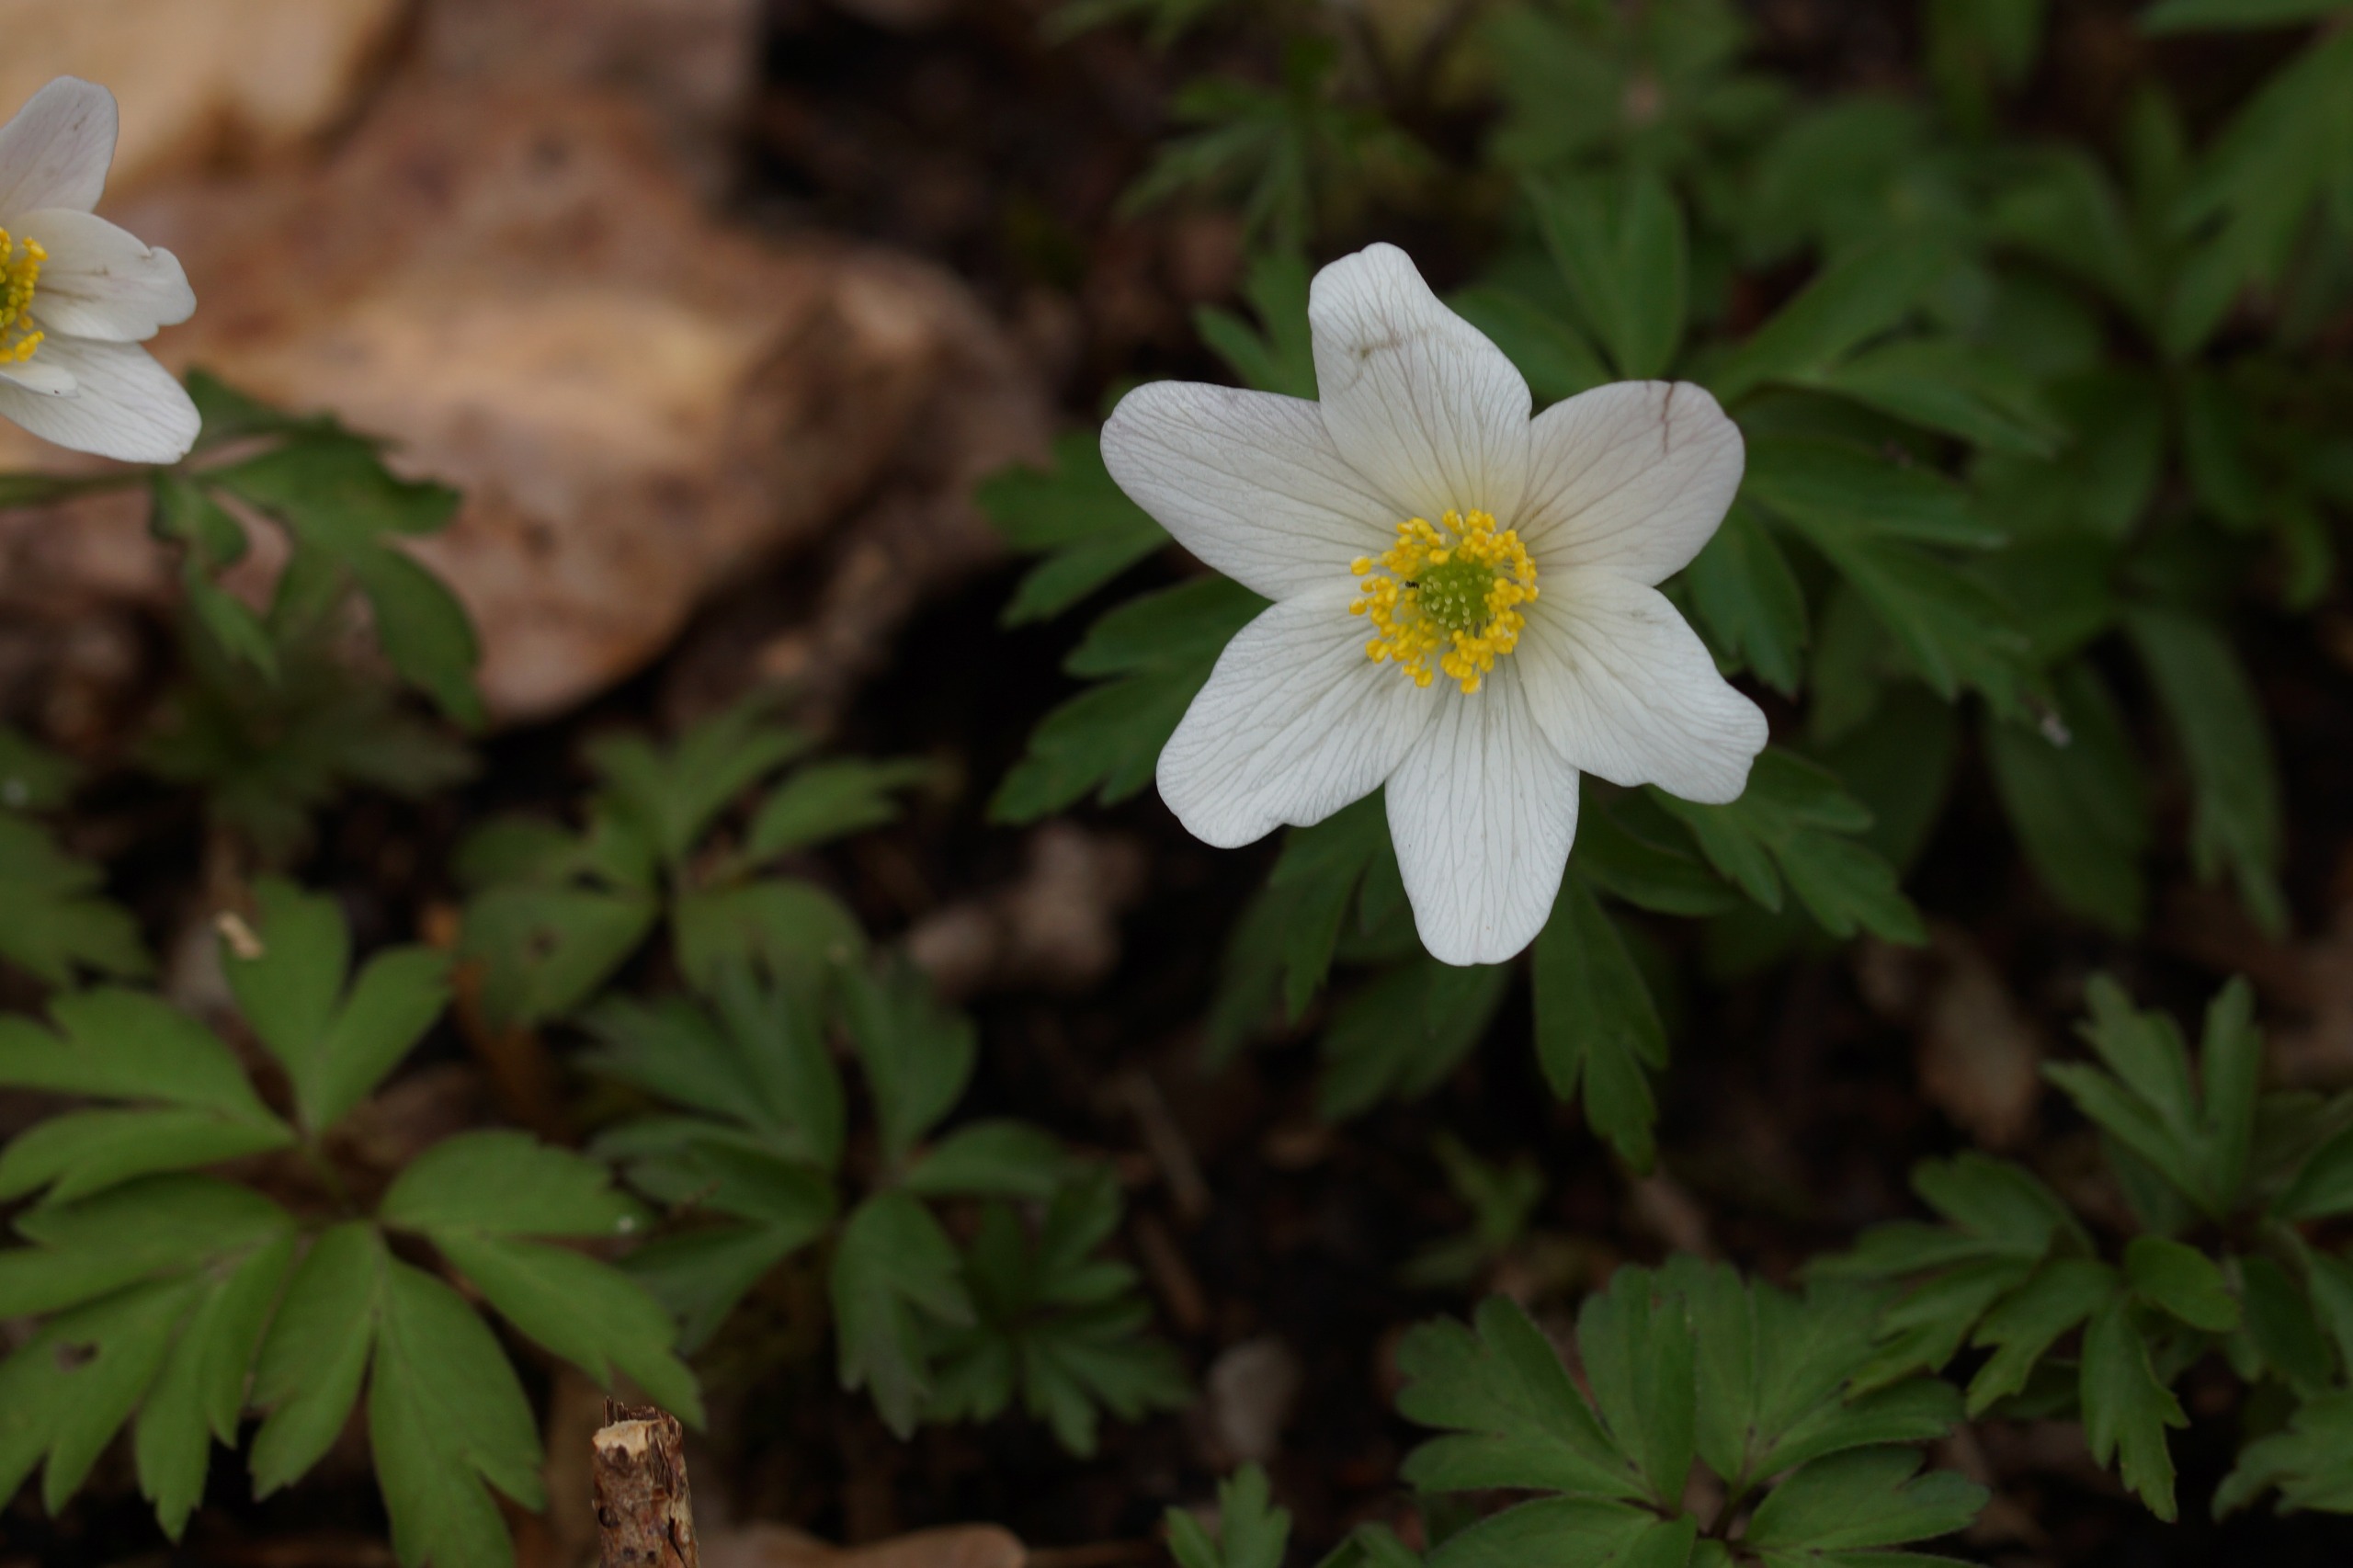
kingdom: Plantae
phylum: Tracheophyta
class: Magnoliopsida
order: Ranunculales
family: Ranunculaceae
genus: Anemone
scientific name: Anemone nemorosa
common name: Hvid anemone
